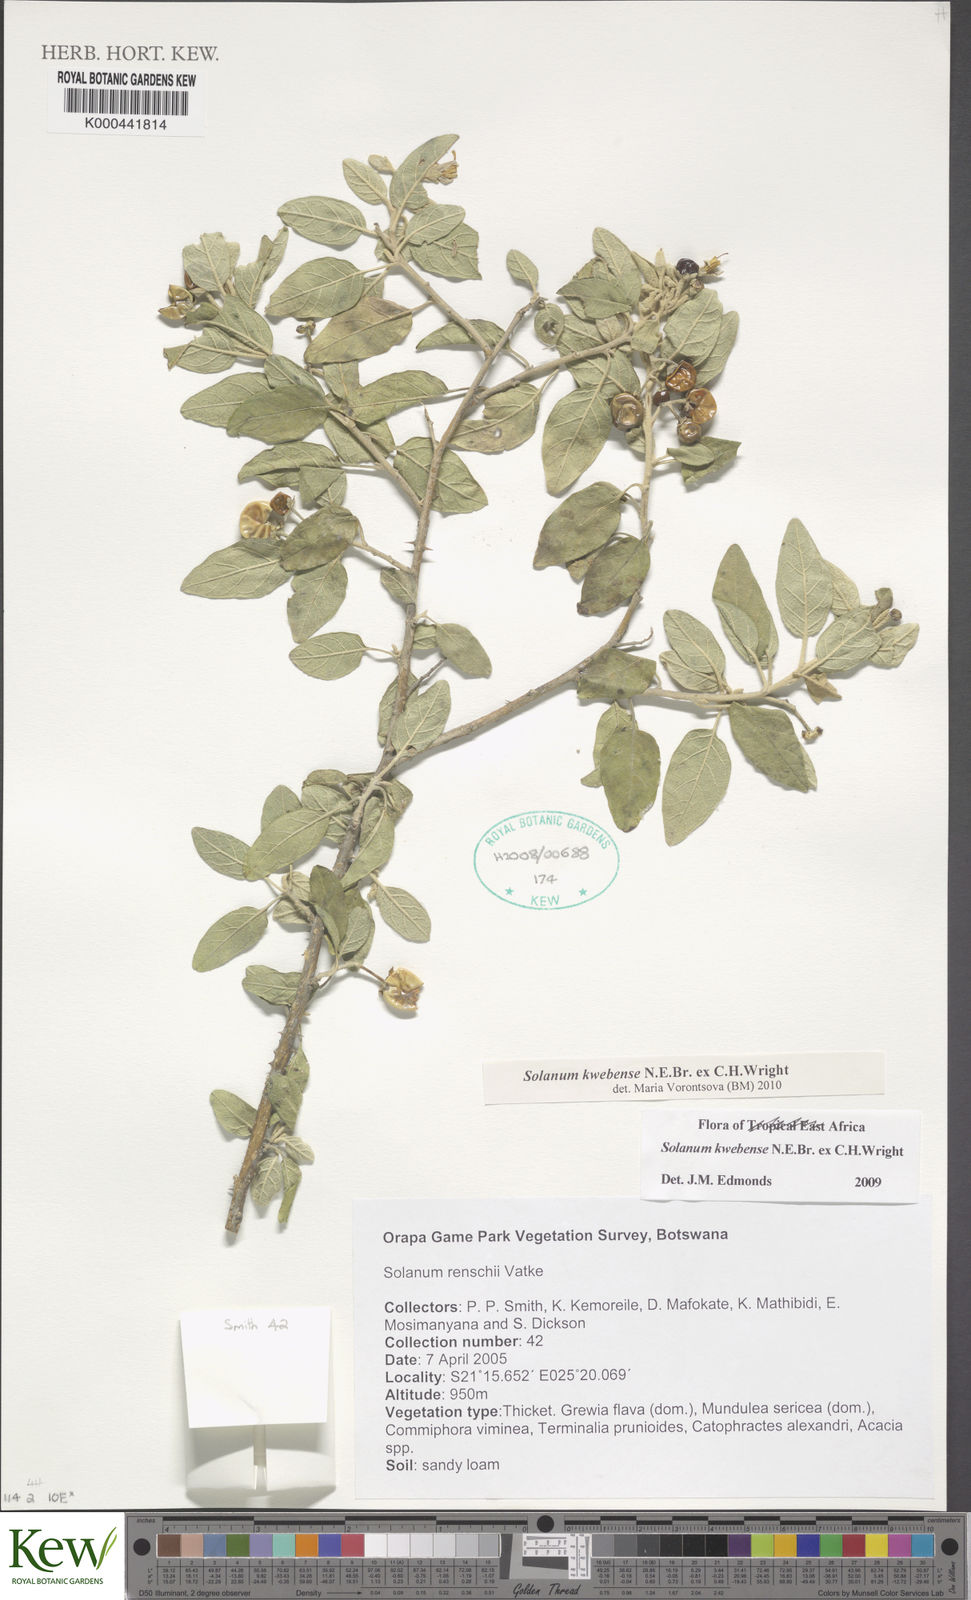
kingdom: Plantae
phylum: Tracheophyta
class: Magnoliopsida
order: Solanales
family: Solanaceae
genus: Solanum
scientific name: Solanum tettense
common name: Mozambique bitter apple
